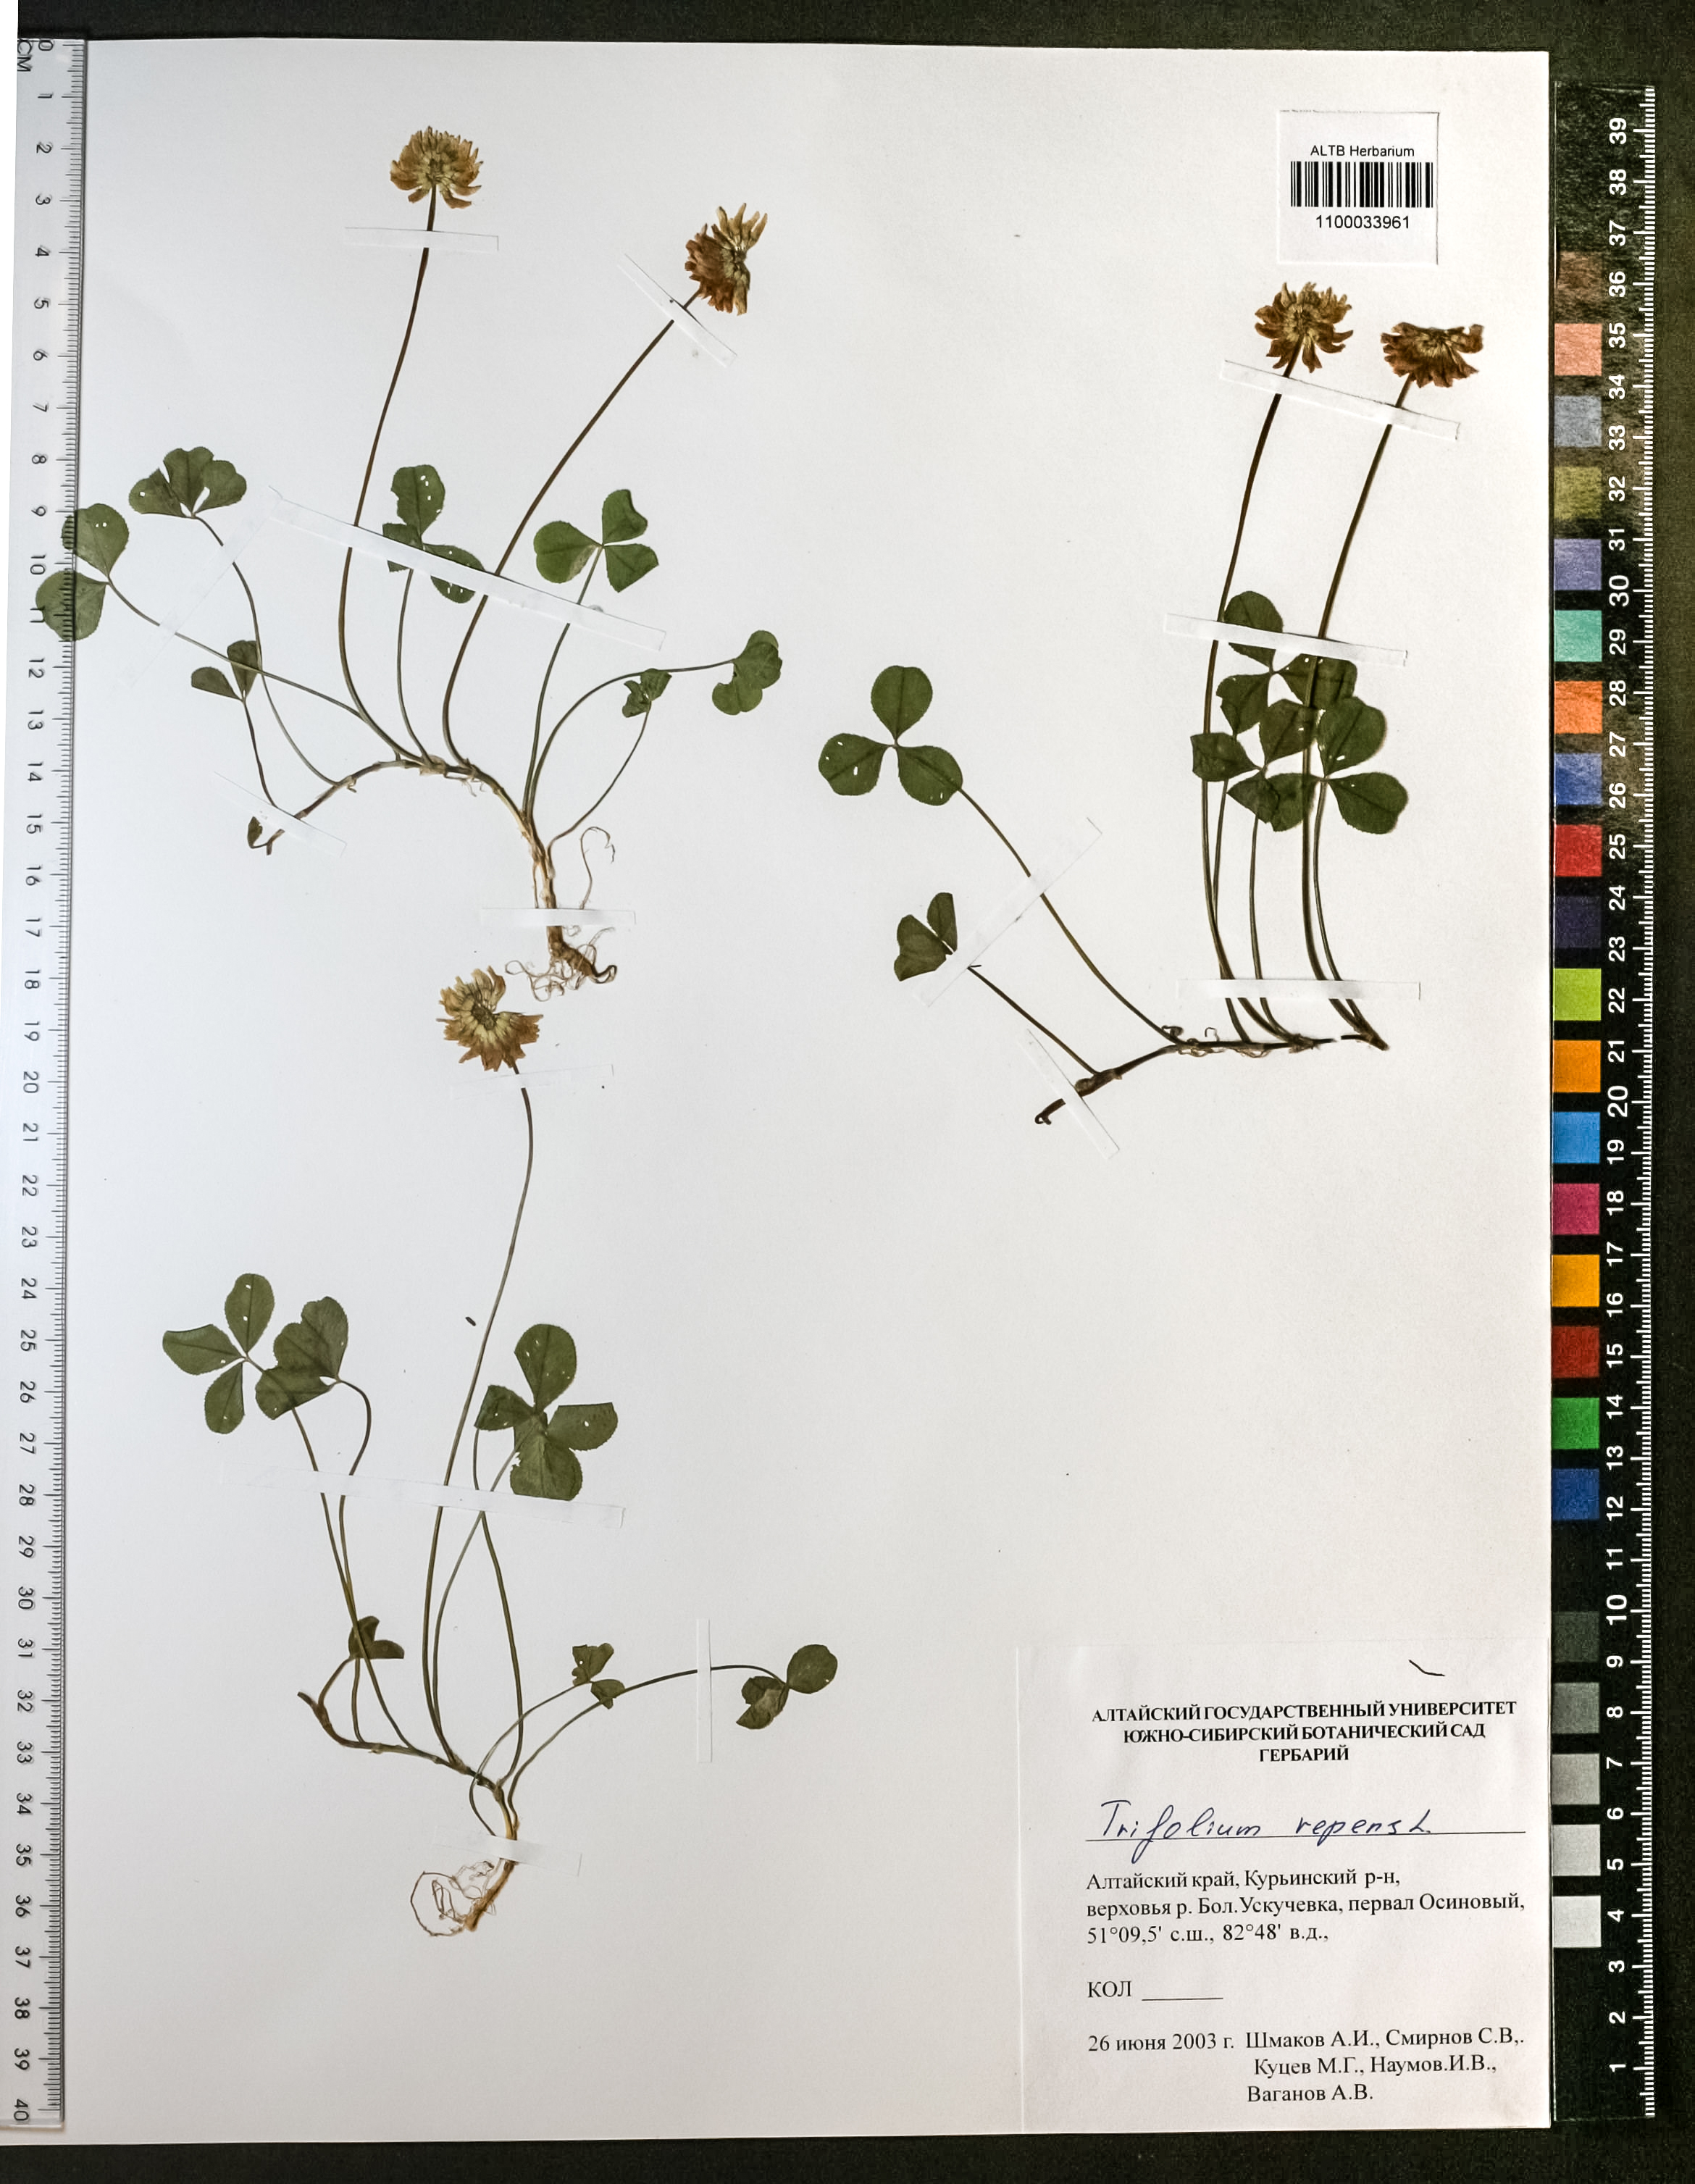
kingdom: Plantae
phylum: Tracheophyta
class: Magnoliopsida
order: Fabales
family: Fabaceae
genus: Trifolium
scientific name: Trifolium repens
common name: White clover
